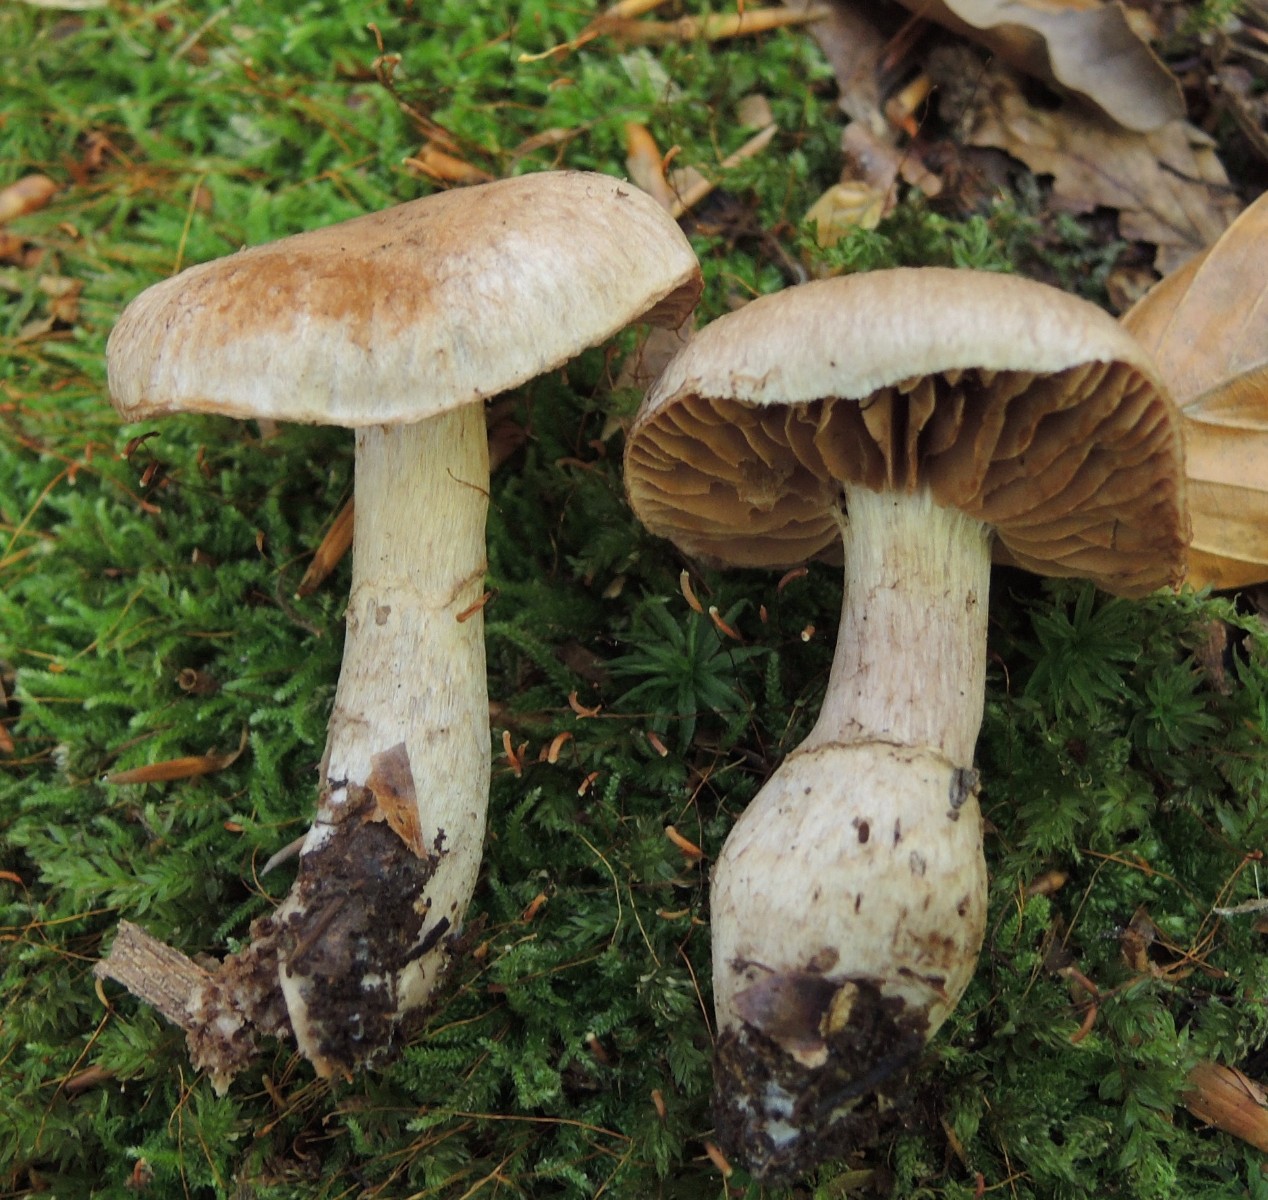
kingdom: Fungi
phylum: Basidiomycota
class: Agaricomycetes
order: Agaricales
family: Cortinariaceae
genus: Cortinarius
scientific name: Cortinarius torvus
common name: champignonagtig slørhat
